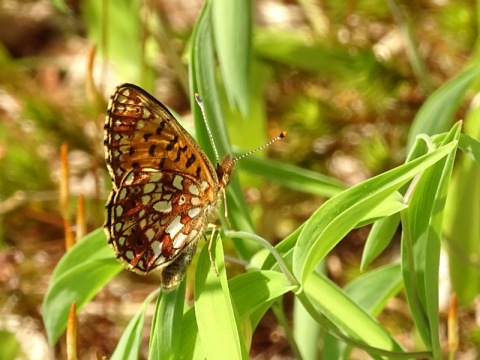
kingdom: Animalia
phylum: Arthropoda
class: Insecta
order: Lepidoptera
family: Nymphalidae
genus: Boloria
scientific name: Boloria selene
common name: Silver-bordered Fritillary
